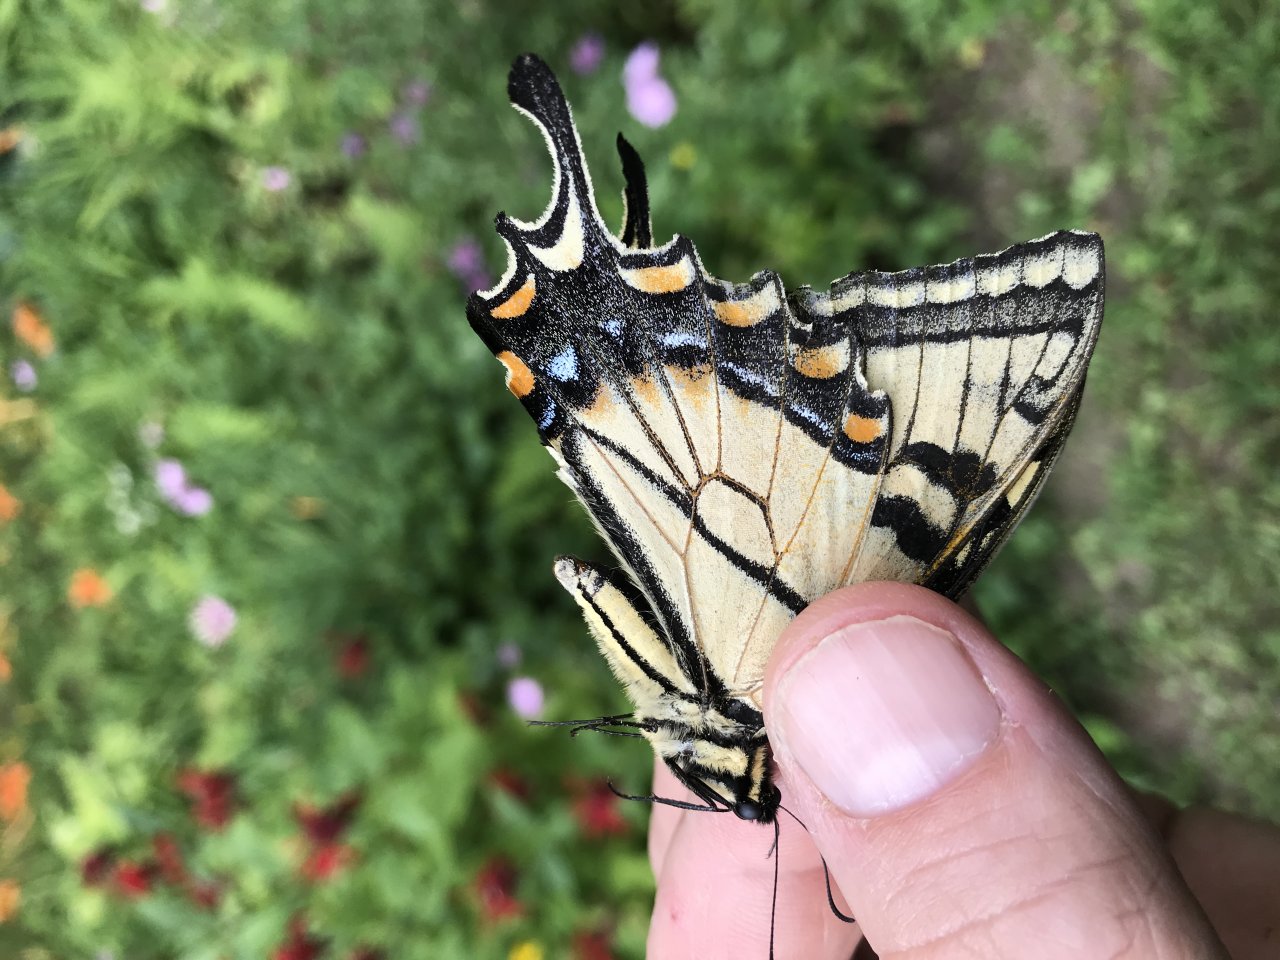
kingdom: Animalia
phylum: Arthropoda
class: Insecta
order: Lepidoptera
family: Papilionidae
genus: Pterourus
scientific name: Pterourus
